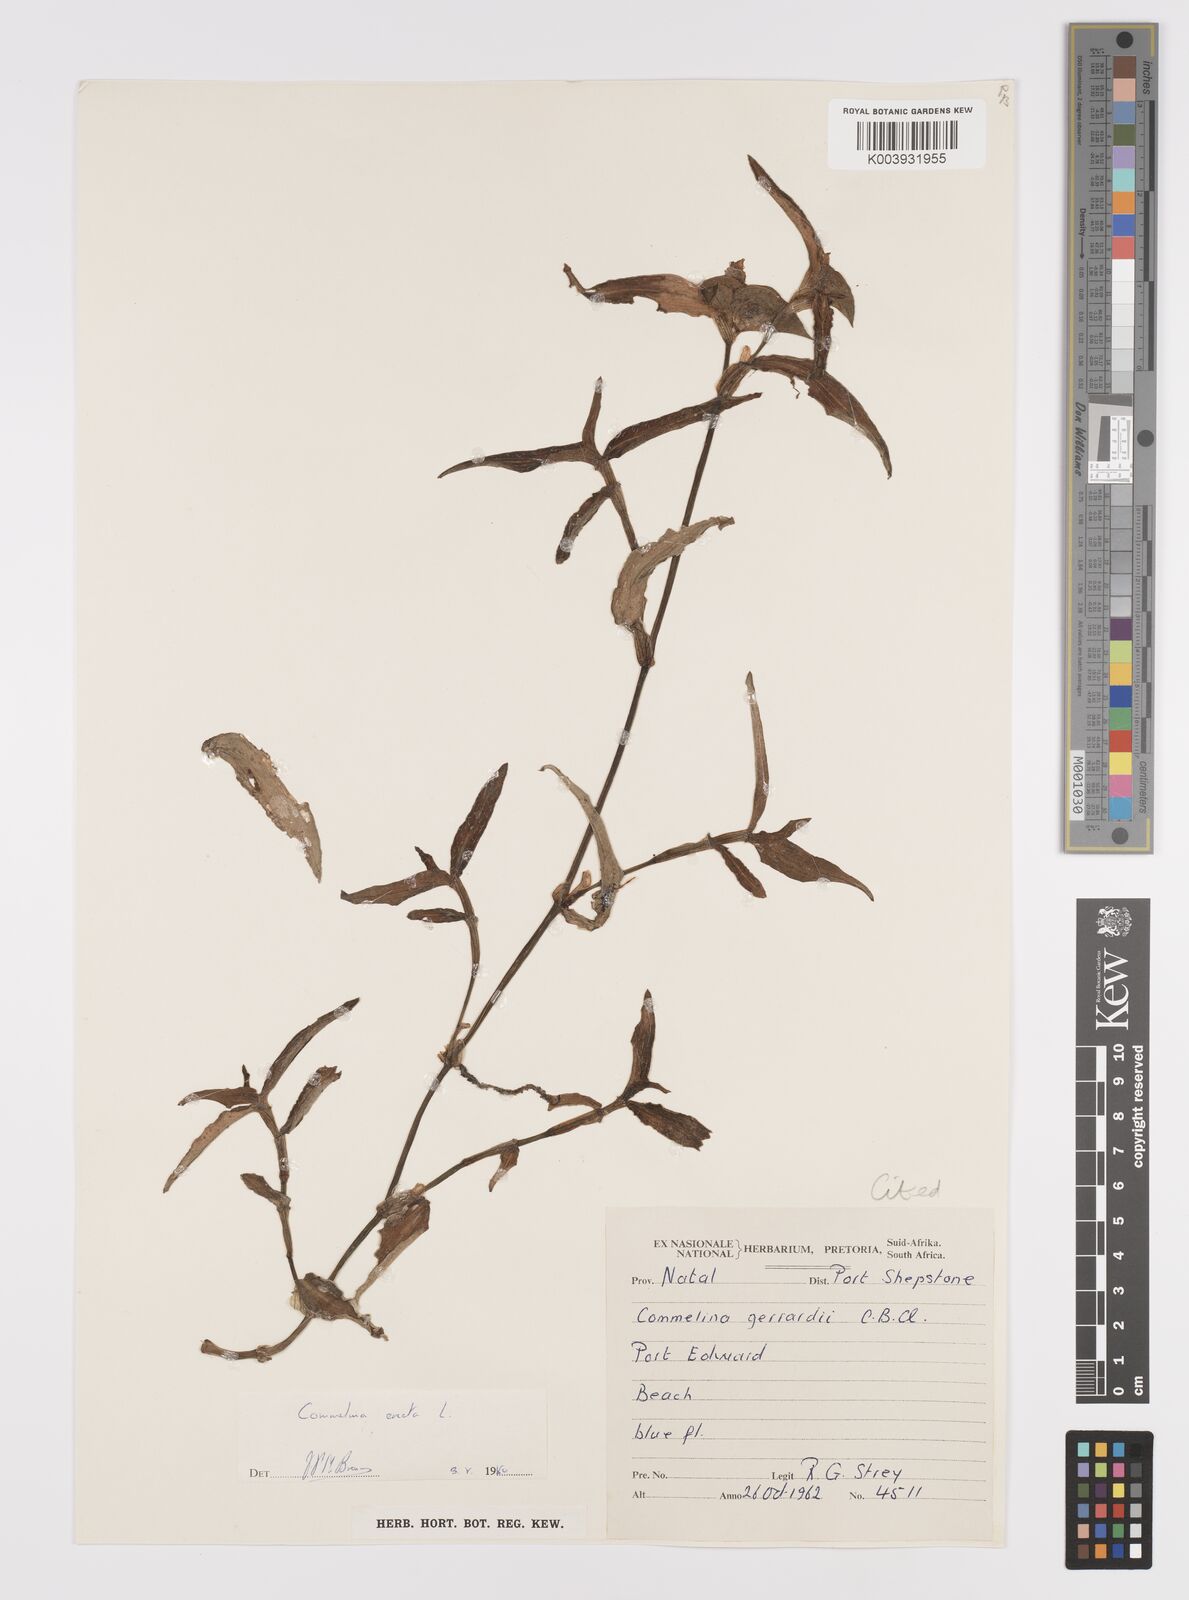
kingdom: Plantae
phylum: Tracheophyta
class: Liliopsida
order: Commelinales
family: Commelinaceae
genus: Commelina
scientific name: Commelina erecta
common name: Blousel blommetjie
